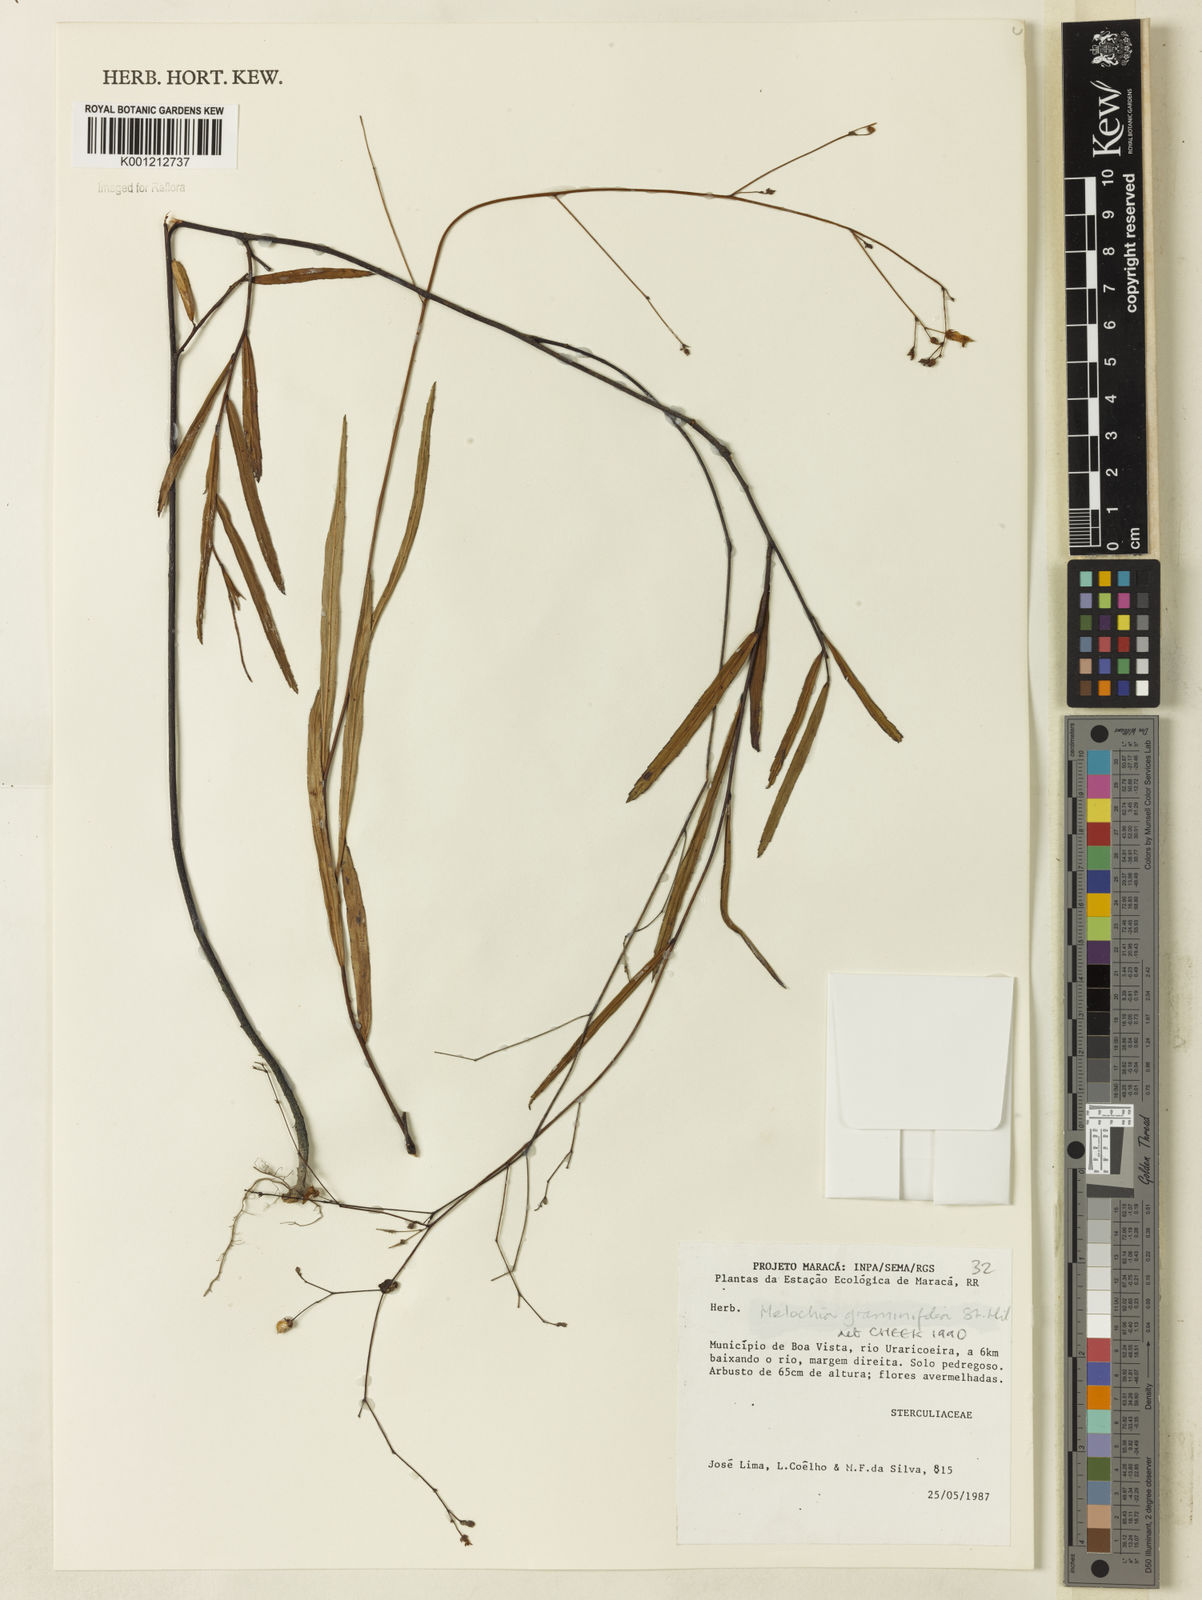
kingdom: Plantae
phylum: Tracheophyta
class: Magnoliopsida
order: Malvales
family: Malvaceae
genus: Melochia
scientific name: Melochia graminifolia
